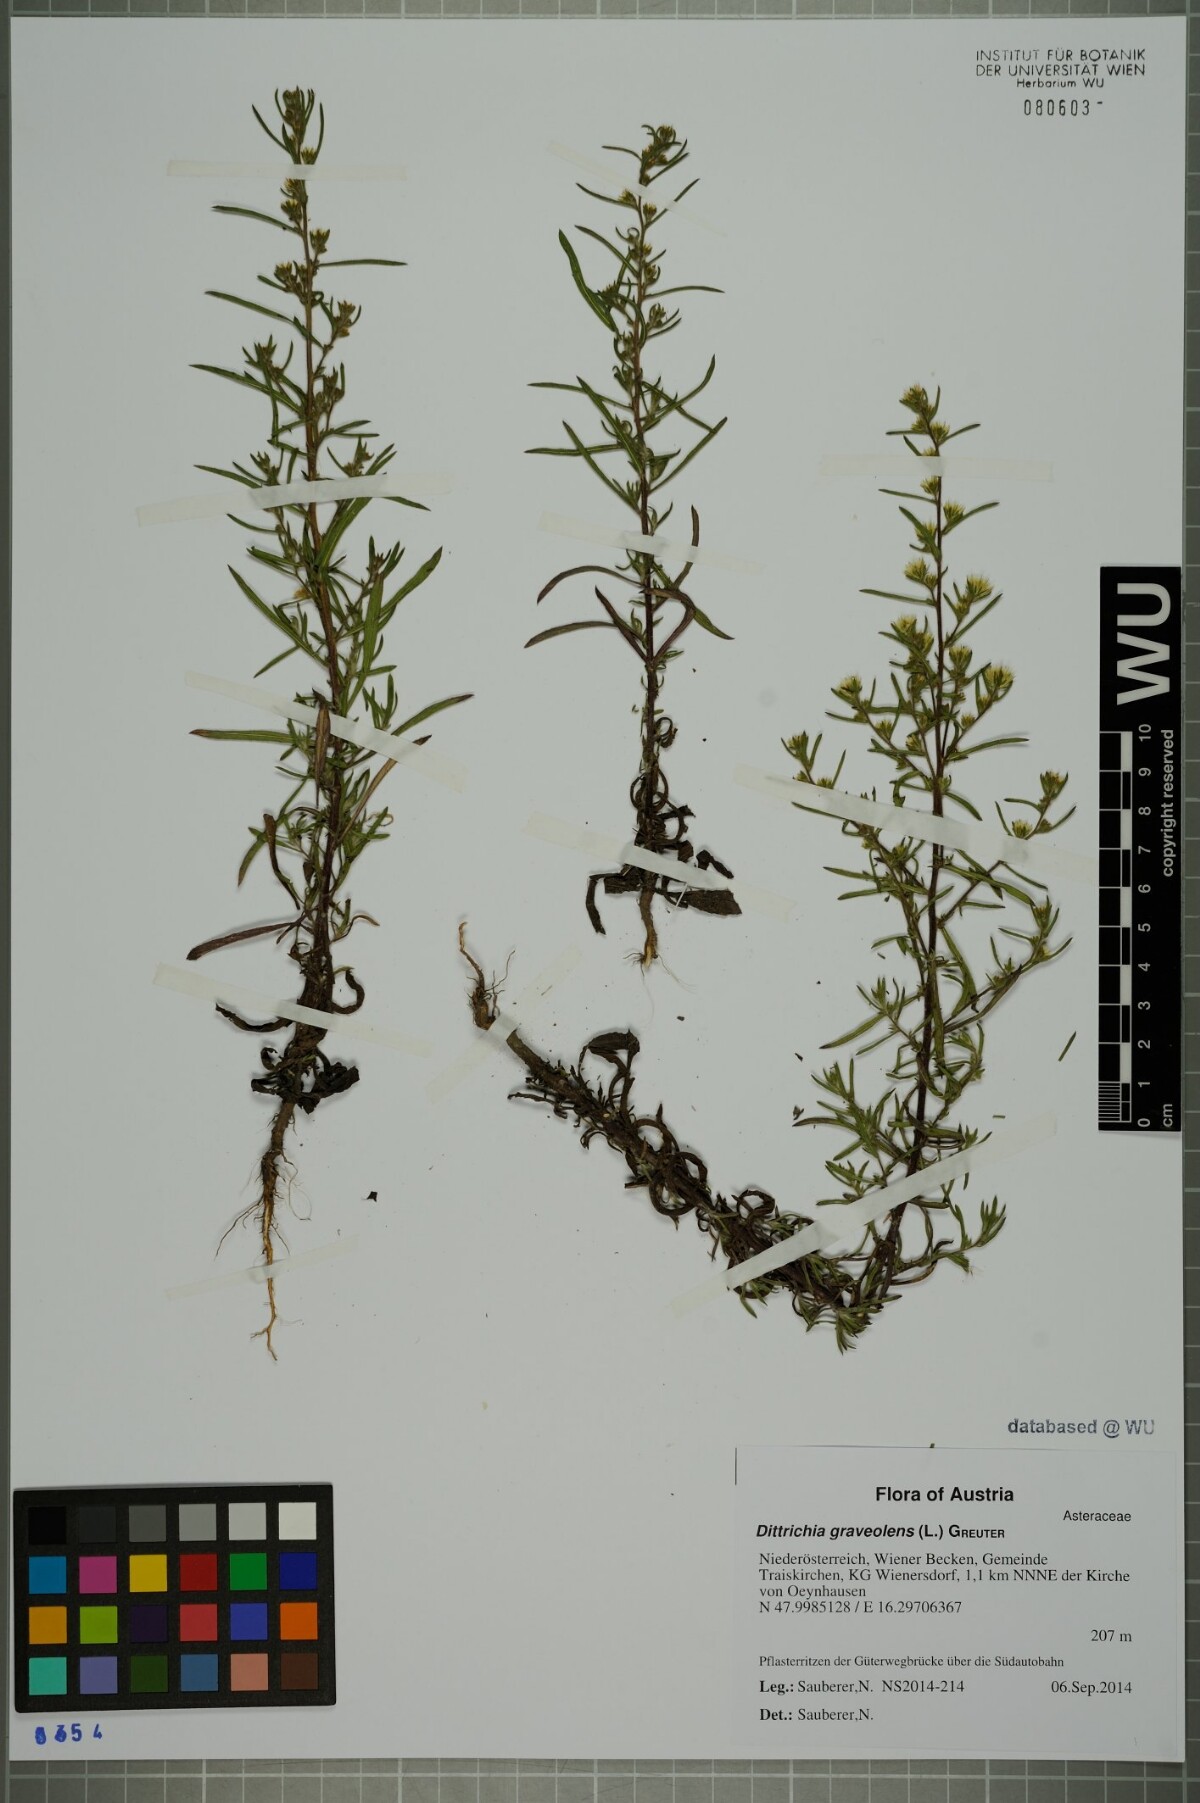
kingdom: Plantae
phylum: Tracheophyta
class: Magnoliopsida
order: Asterales
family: Asteraceae
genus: Dittrichia
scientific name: Dittrichia graveolens
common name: Stinking fleabane
